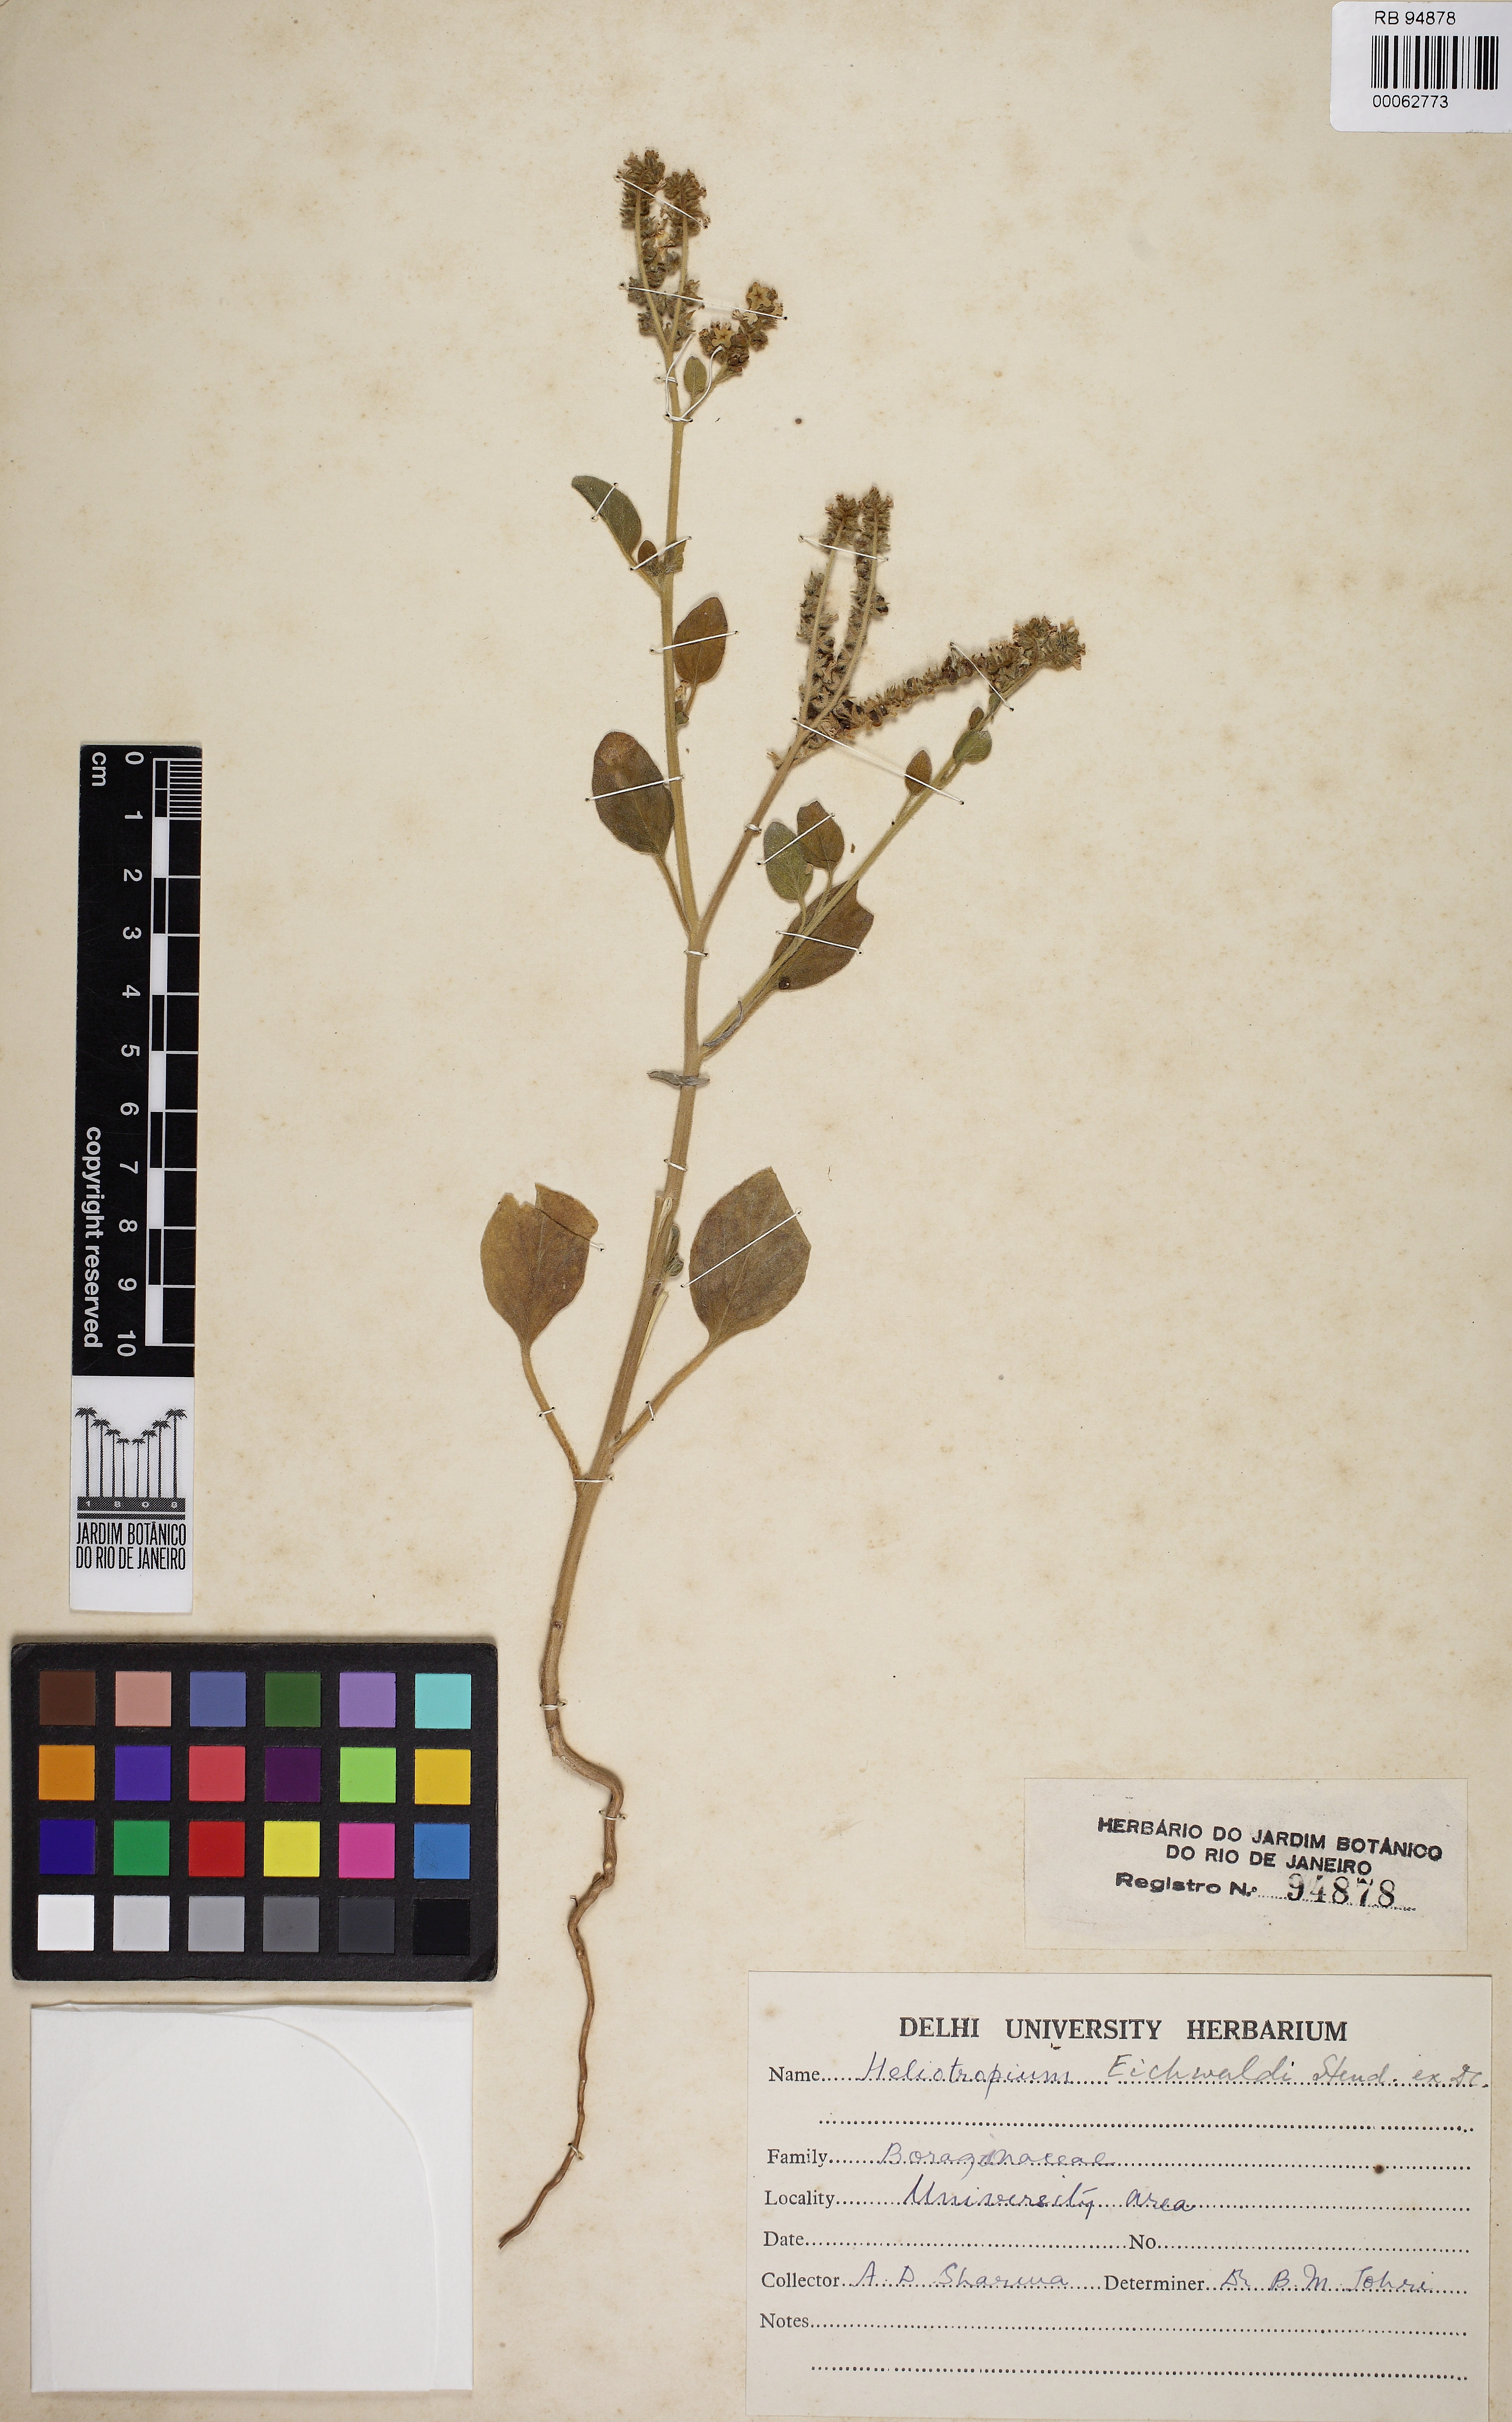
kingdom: Plantae
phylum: Tracheophyta
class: Magnoliopsida
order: Boraginales
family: Heliotropiaceae
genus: Heliotropium
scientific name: Heliotropium
